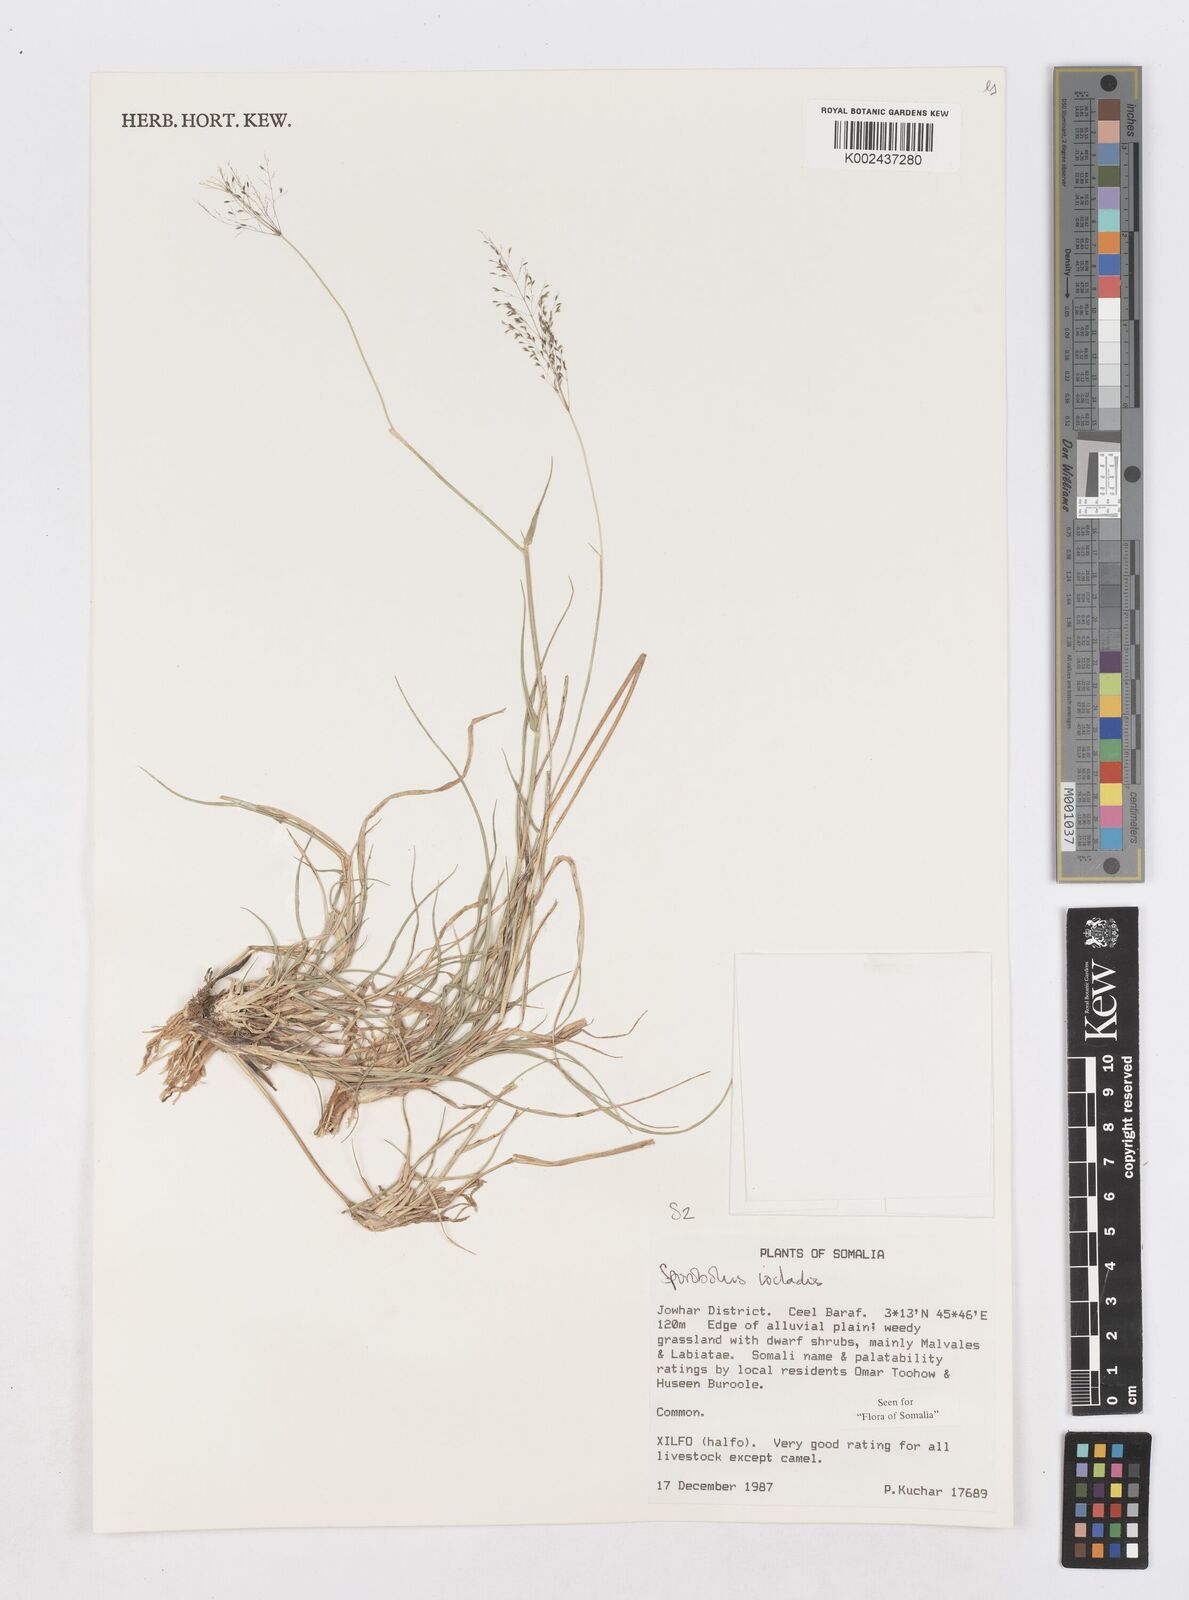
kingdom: Plantae
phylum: Tracheophyta
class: Liliopsida
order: Poales
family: Poaceae
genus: Sporobolus
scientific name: Sporobolus ioclados
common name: Pan dropseed
